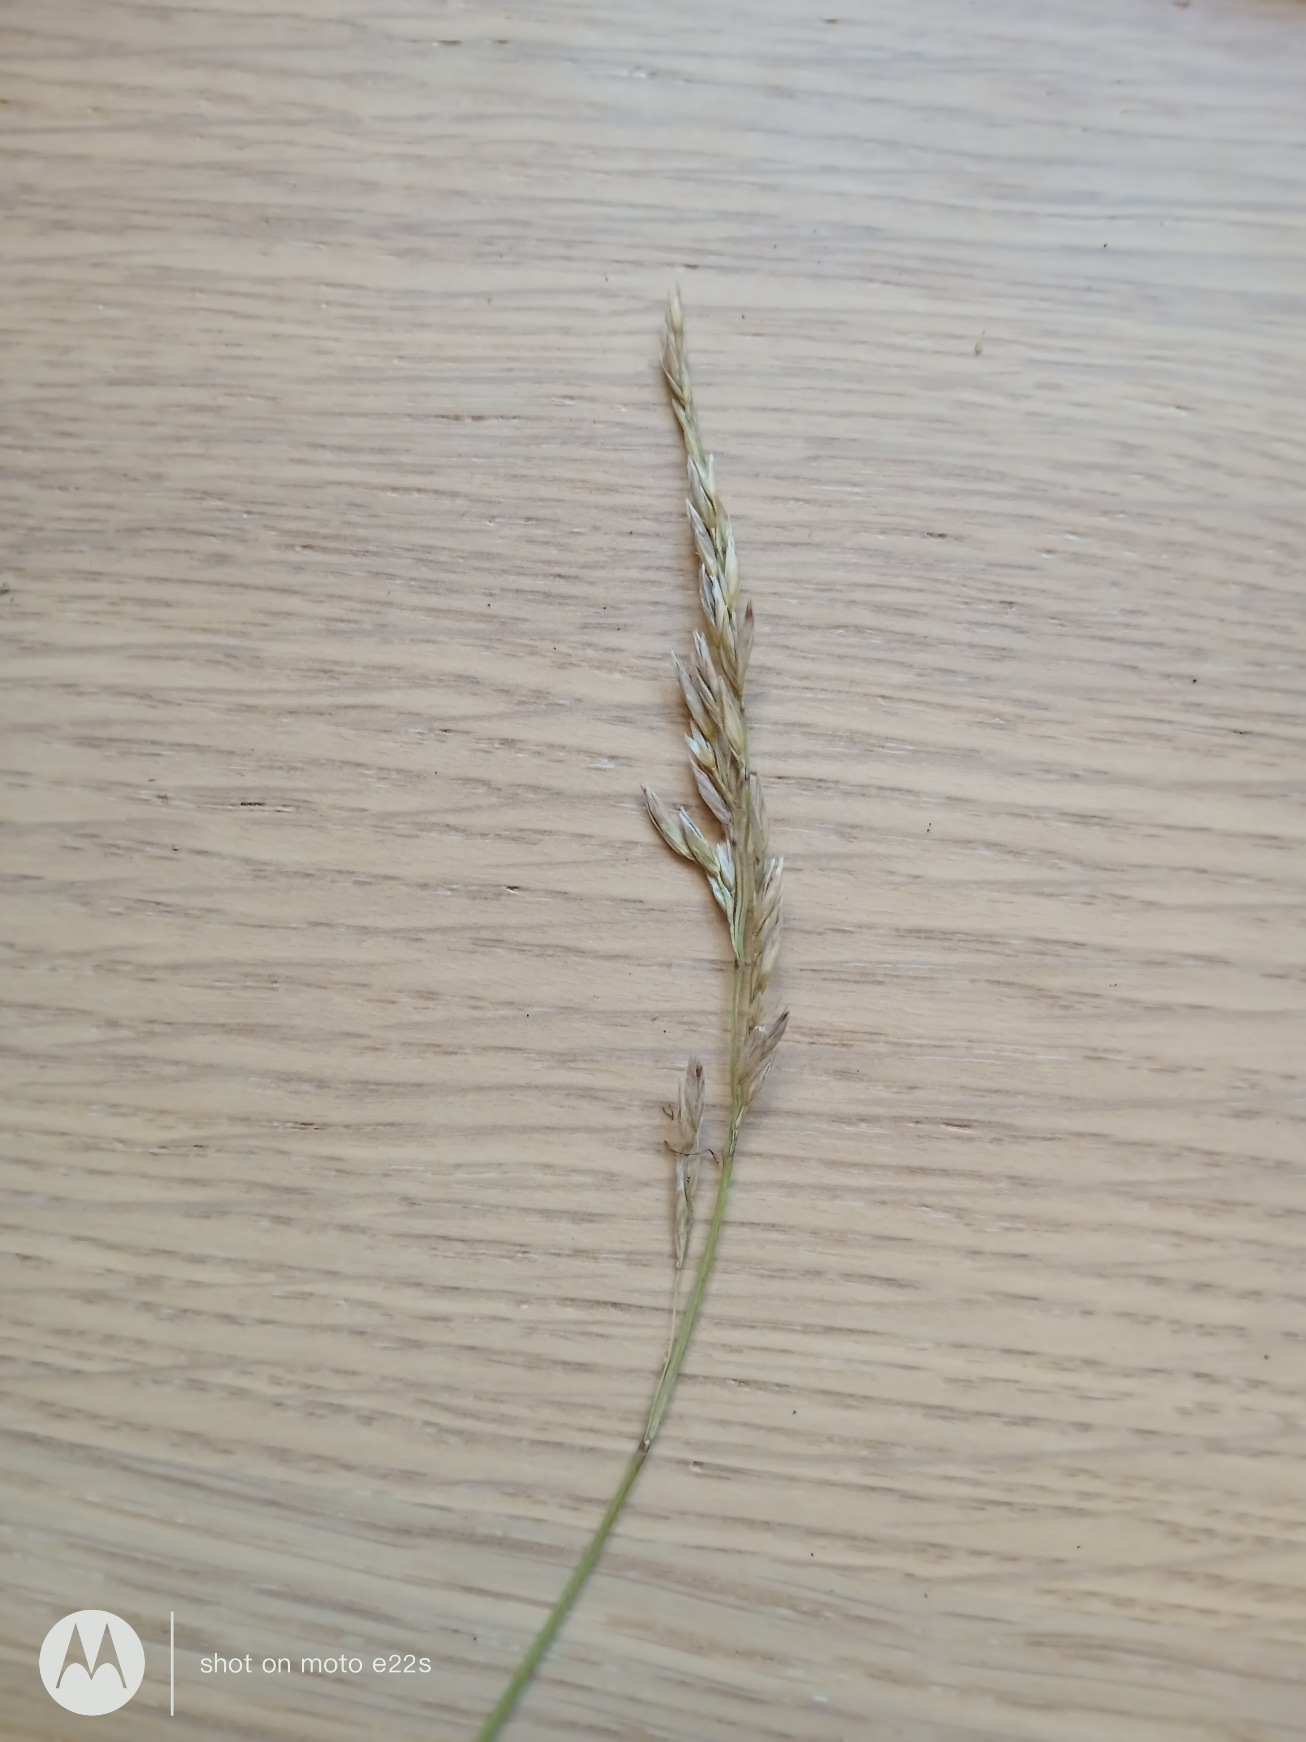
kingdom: Plantae
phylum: Tracheophyta
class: Liliopsida
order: Poales
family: Poaceae
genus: Festuca
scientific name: Festuca
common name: Svingelslægten
